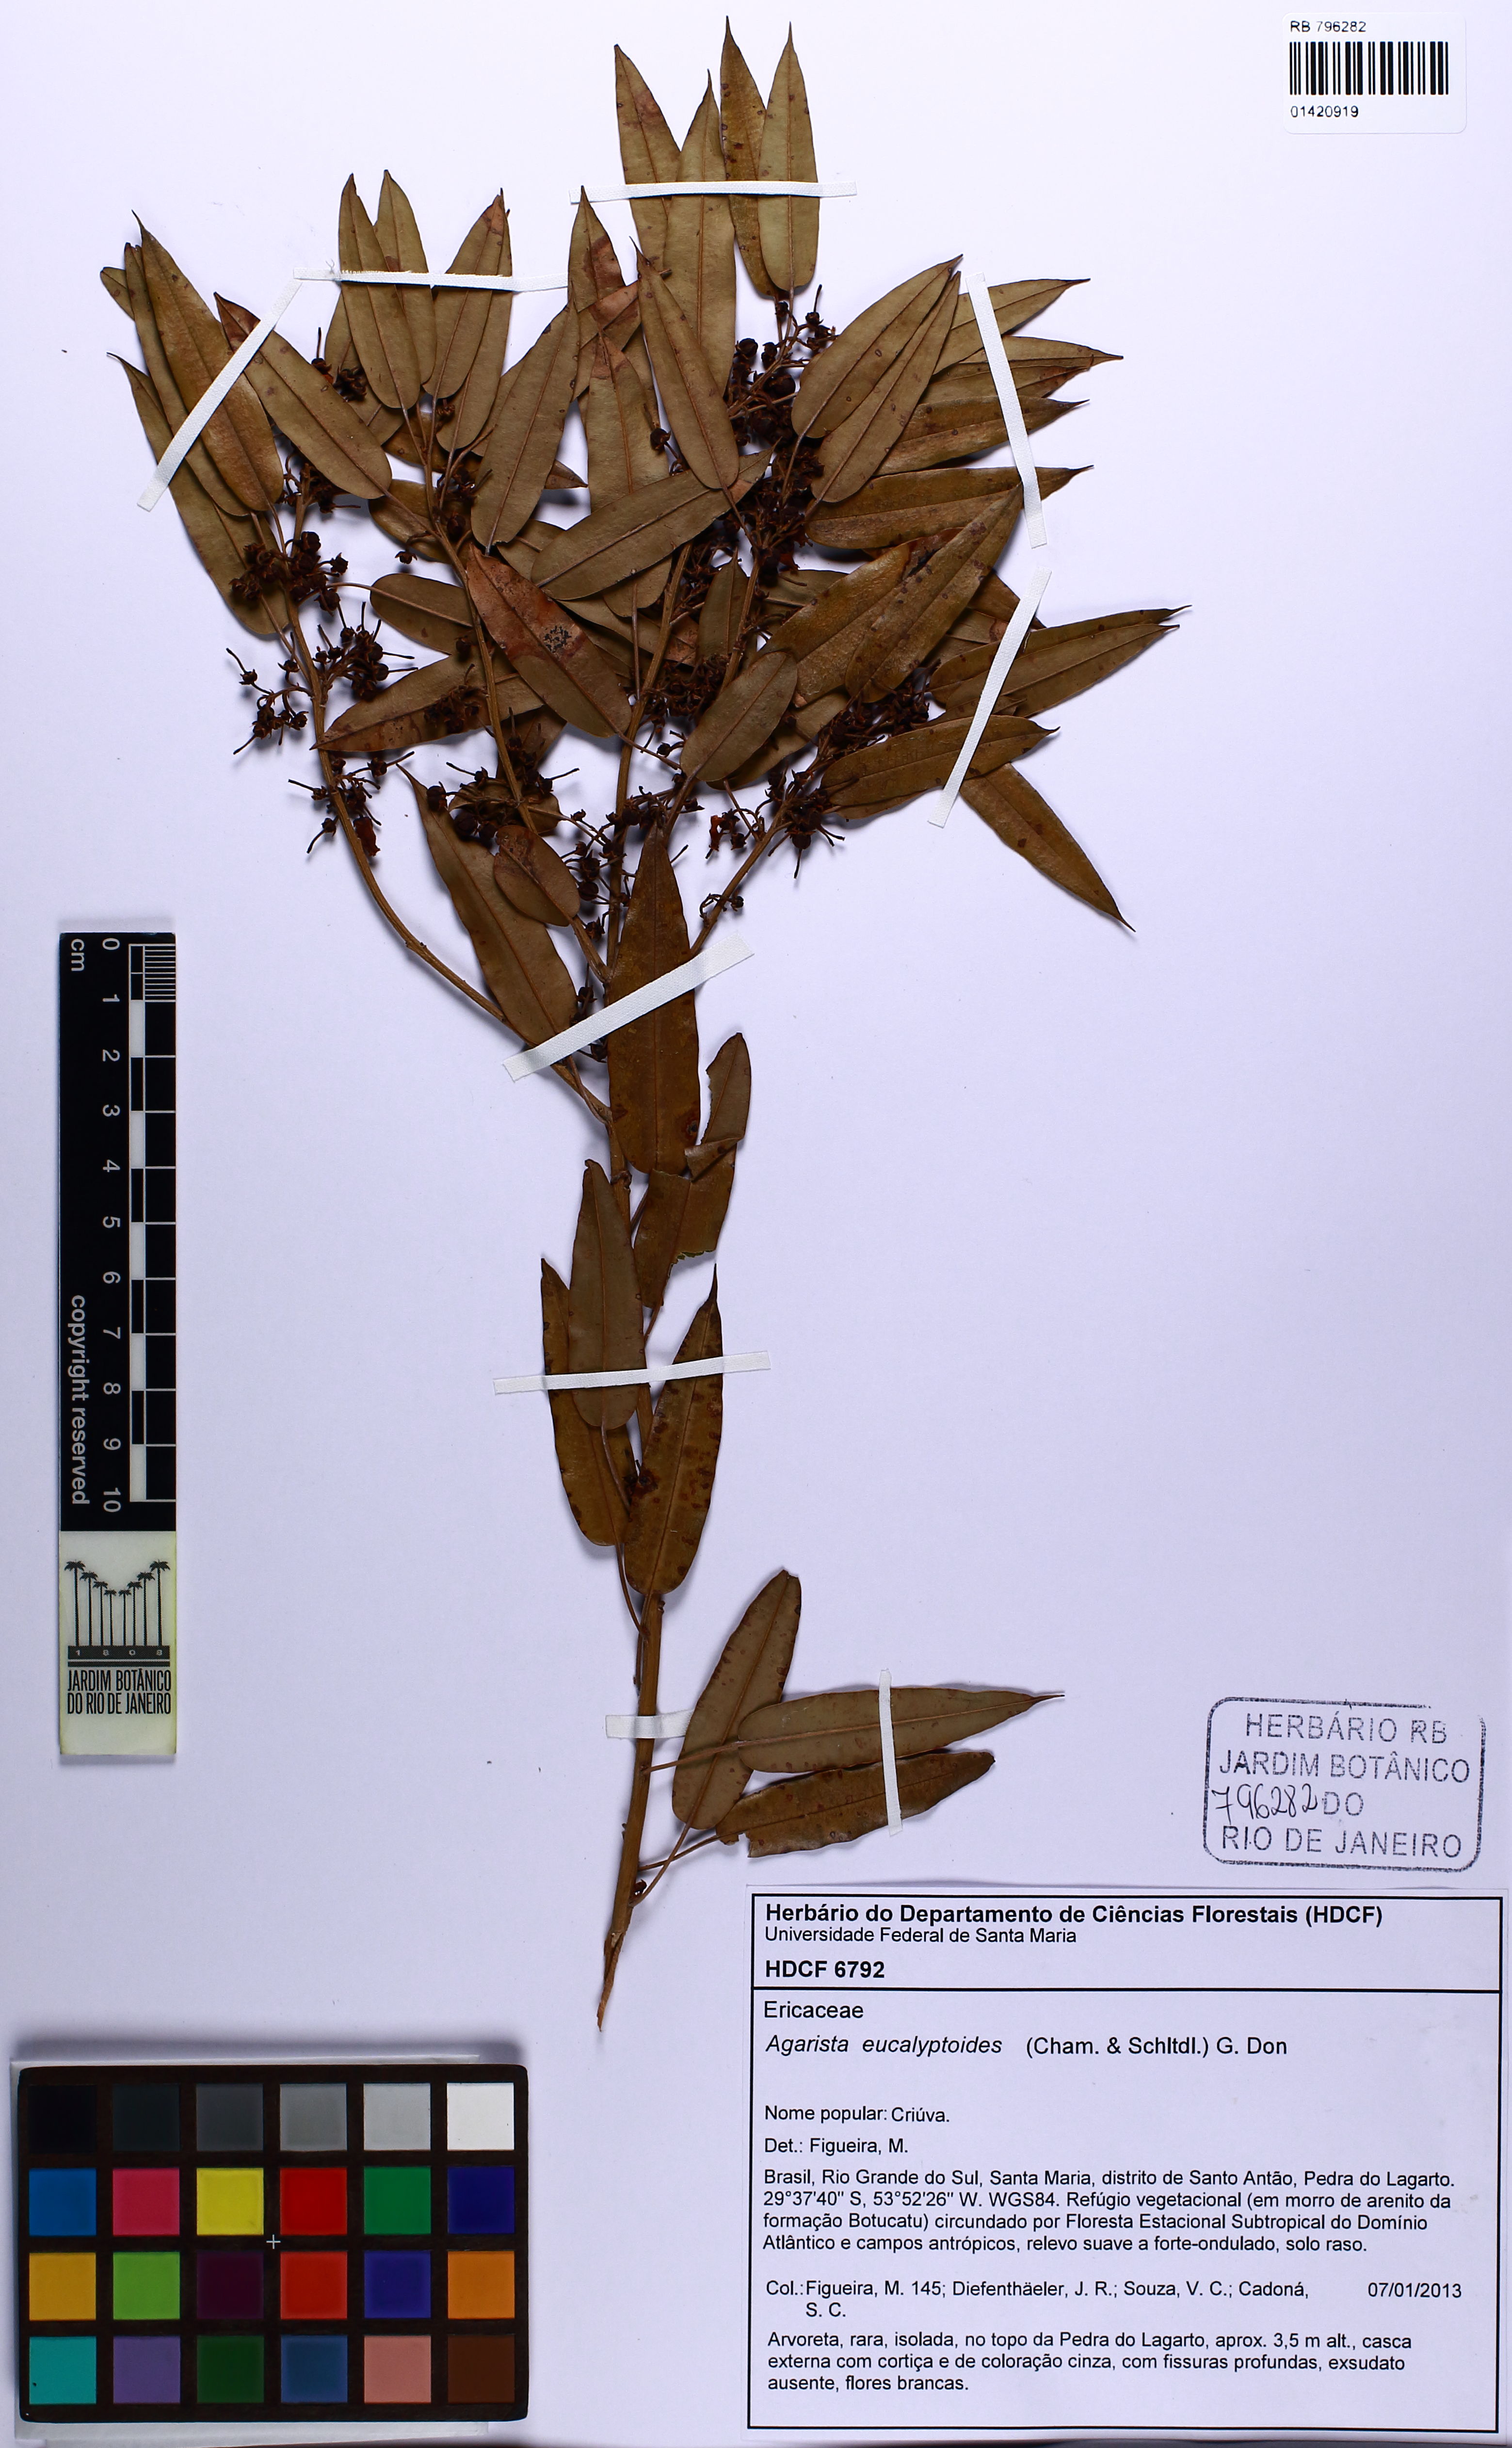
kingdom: Plantae
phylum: Tracheophyta
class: Magnoliopsida
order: Ericales
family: Ericaceae
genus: Agarista
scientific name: Agarista eucalyptoides
